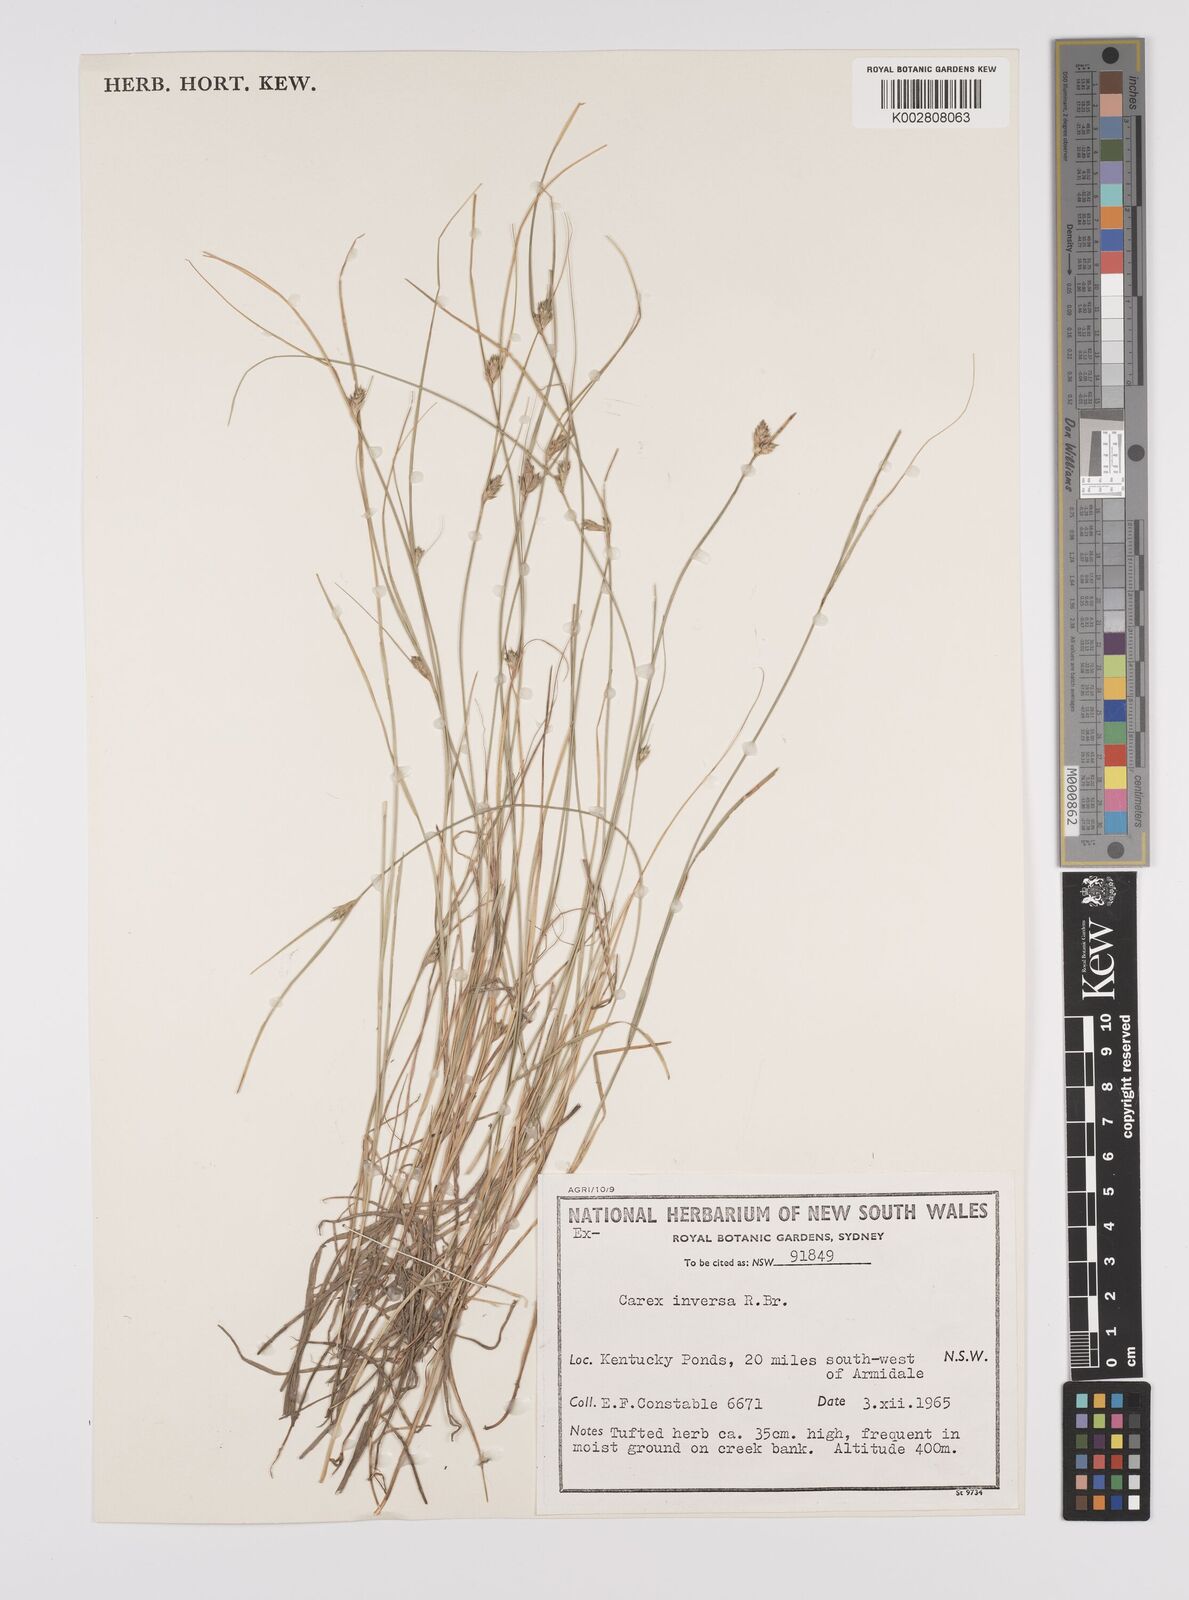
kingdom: Plantae
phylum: Tracheophyta
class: Liliopsida
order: Poales
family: Cyperaceae
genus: Carex
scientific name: Carex inversa
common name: Knob sedge
